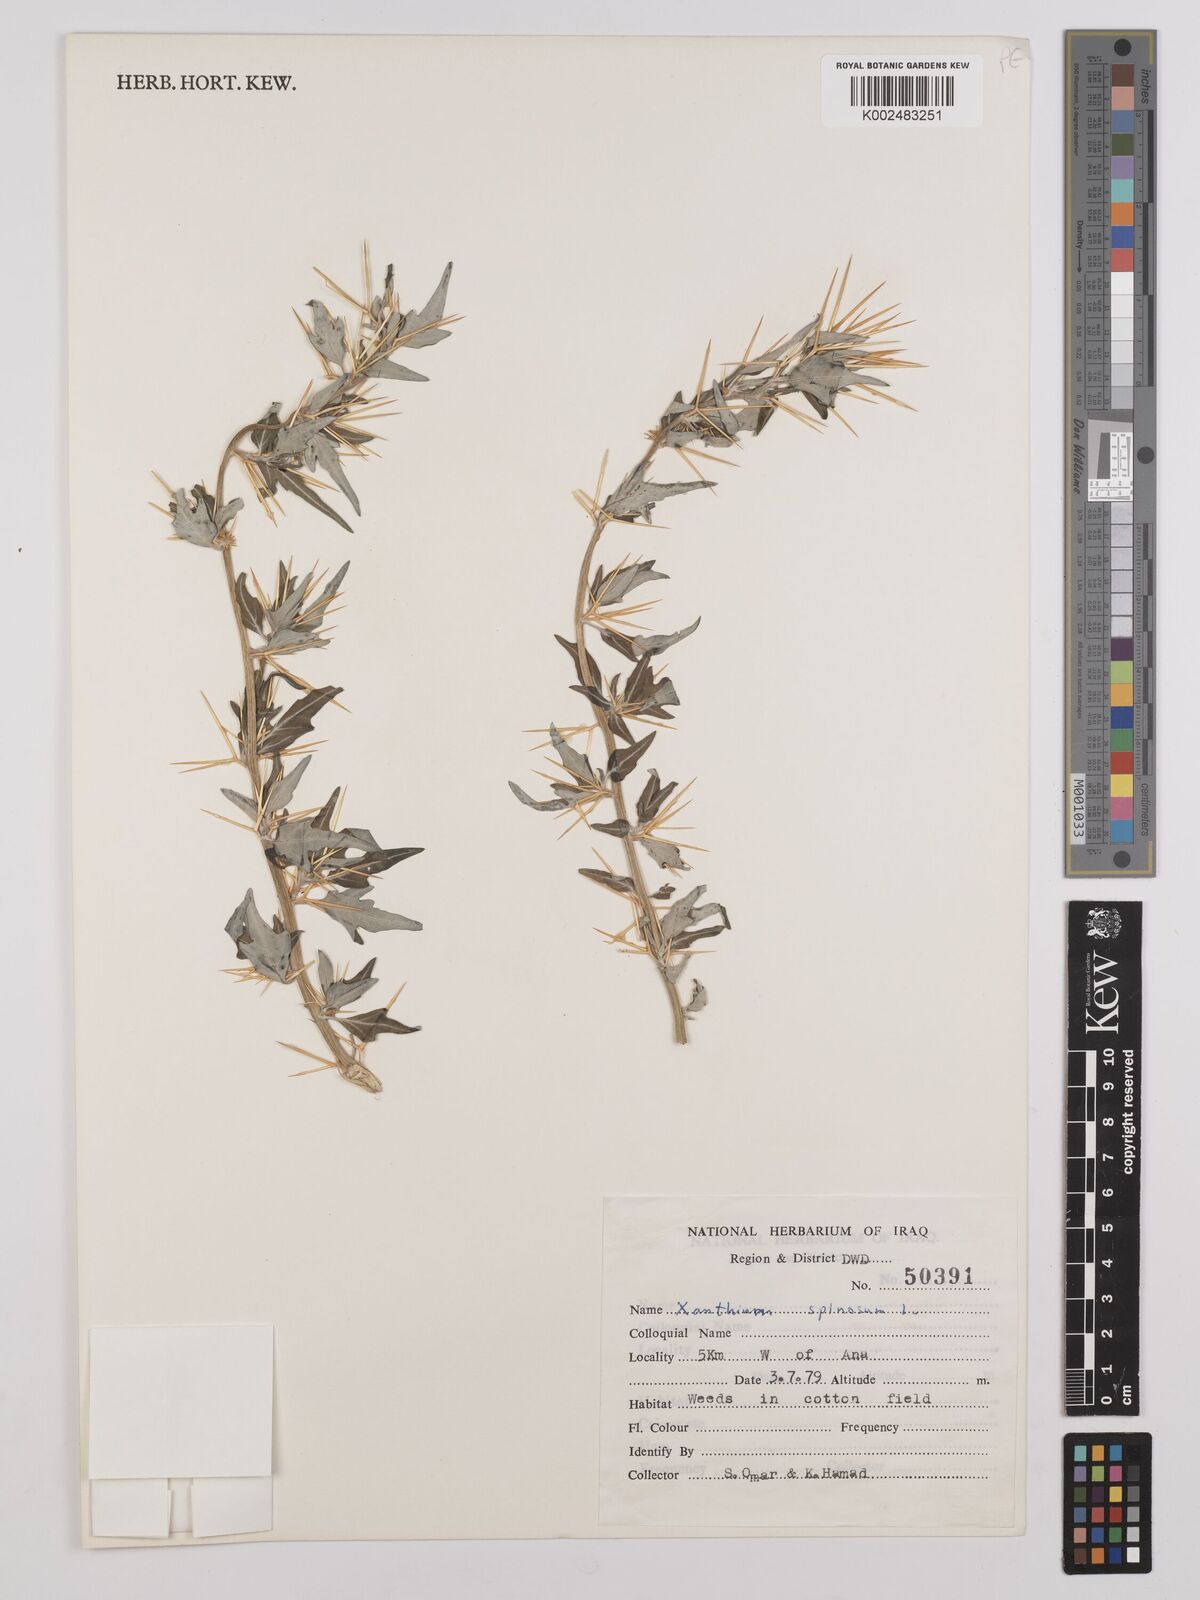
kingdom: Plantae
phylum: Tracheophyta
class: Magnoliopsida
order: Asterales
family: Asteraceae
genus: Xanthium
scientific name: Xanthium spinosum
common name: Spiny cocklebur
